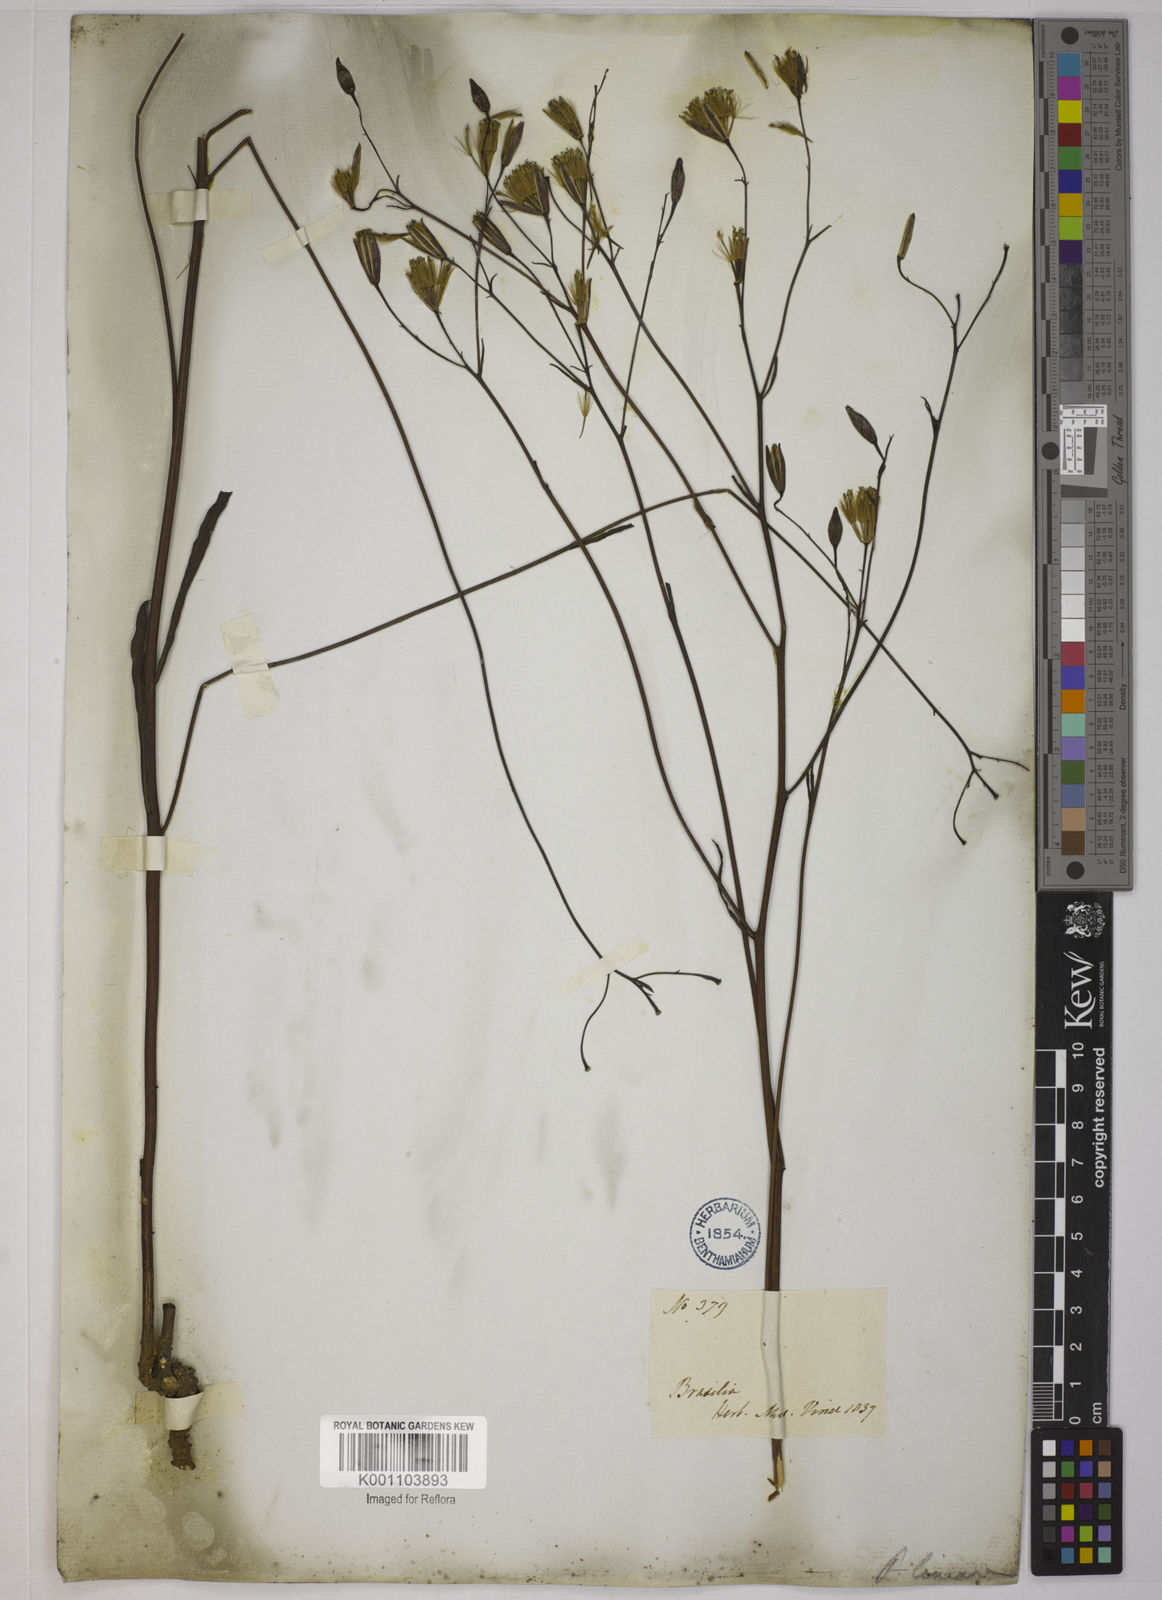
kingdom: Plantae
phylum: Tracheophyta
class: Magnoliopsida
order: Asterales
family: Asteraceae
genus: Porophyllum
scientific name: Porophyllum obscurum
